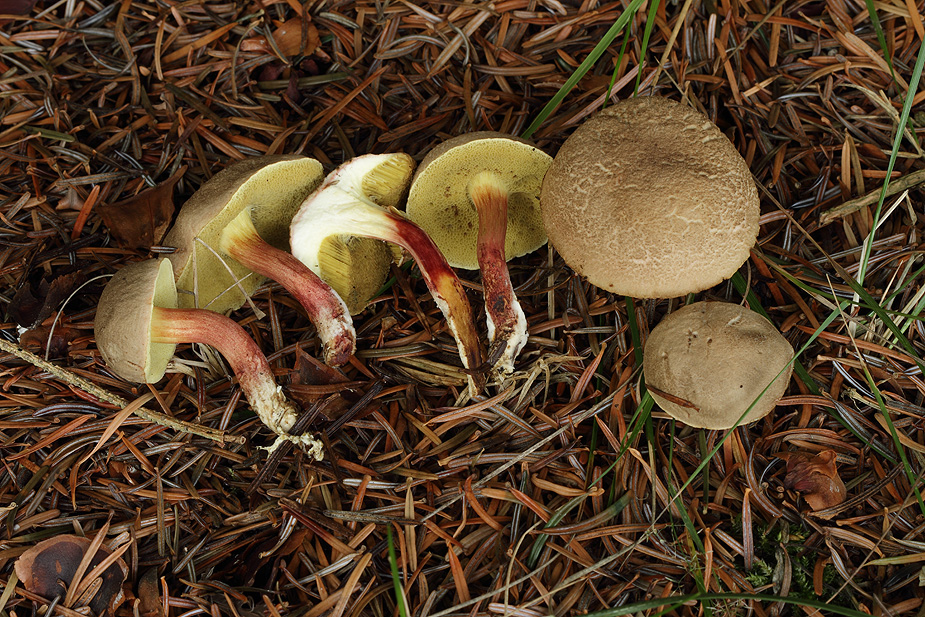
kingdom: Fungi
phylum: Basidiomycota
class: Agaricomycetes
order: Boletales
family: Boletaceae
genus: Xerocomellus
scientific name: Xerocomellus chrysenteron
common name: rødsprukken rørhat
